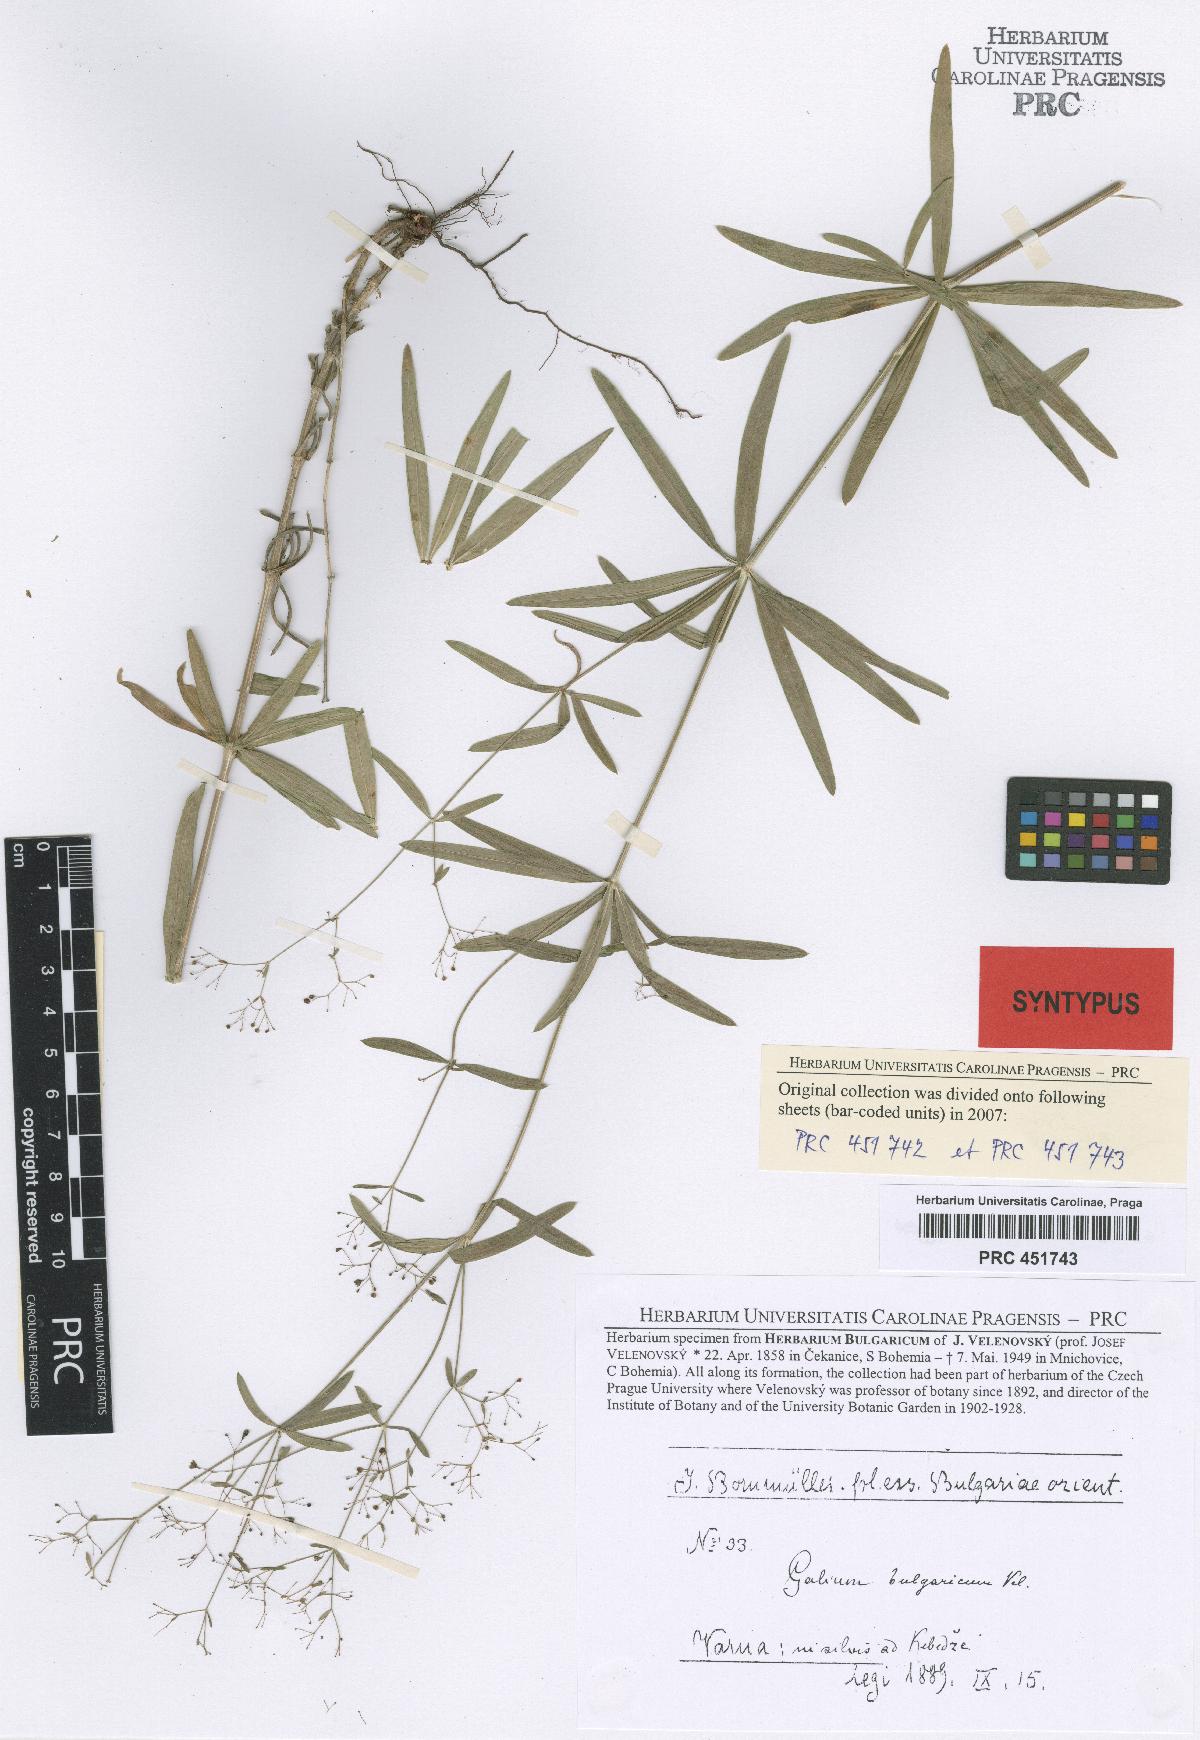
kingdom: Plantae
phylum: Tracheophyta
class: Magnoliopsida
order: Gentianales
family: Rubiaceae
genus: Galium
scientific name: Galium paschale
